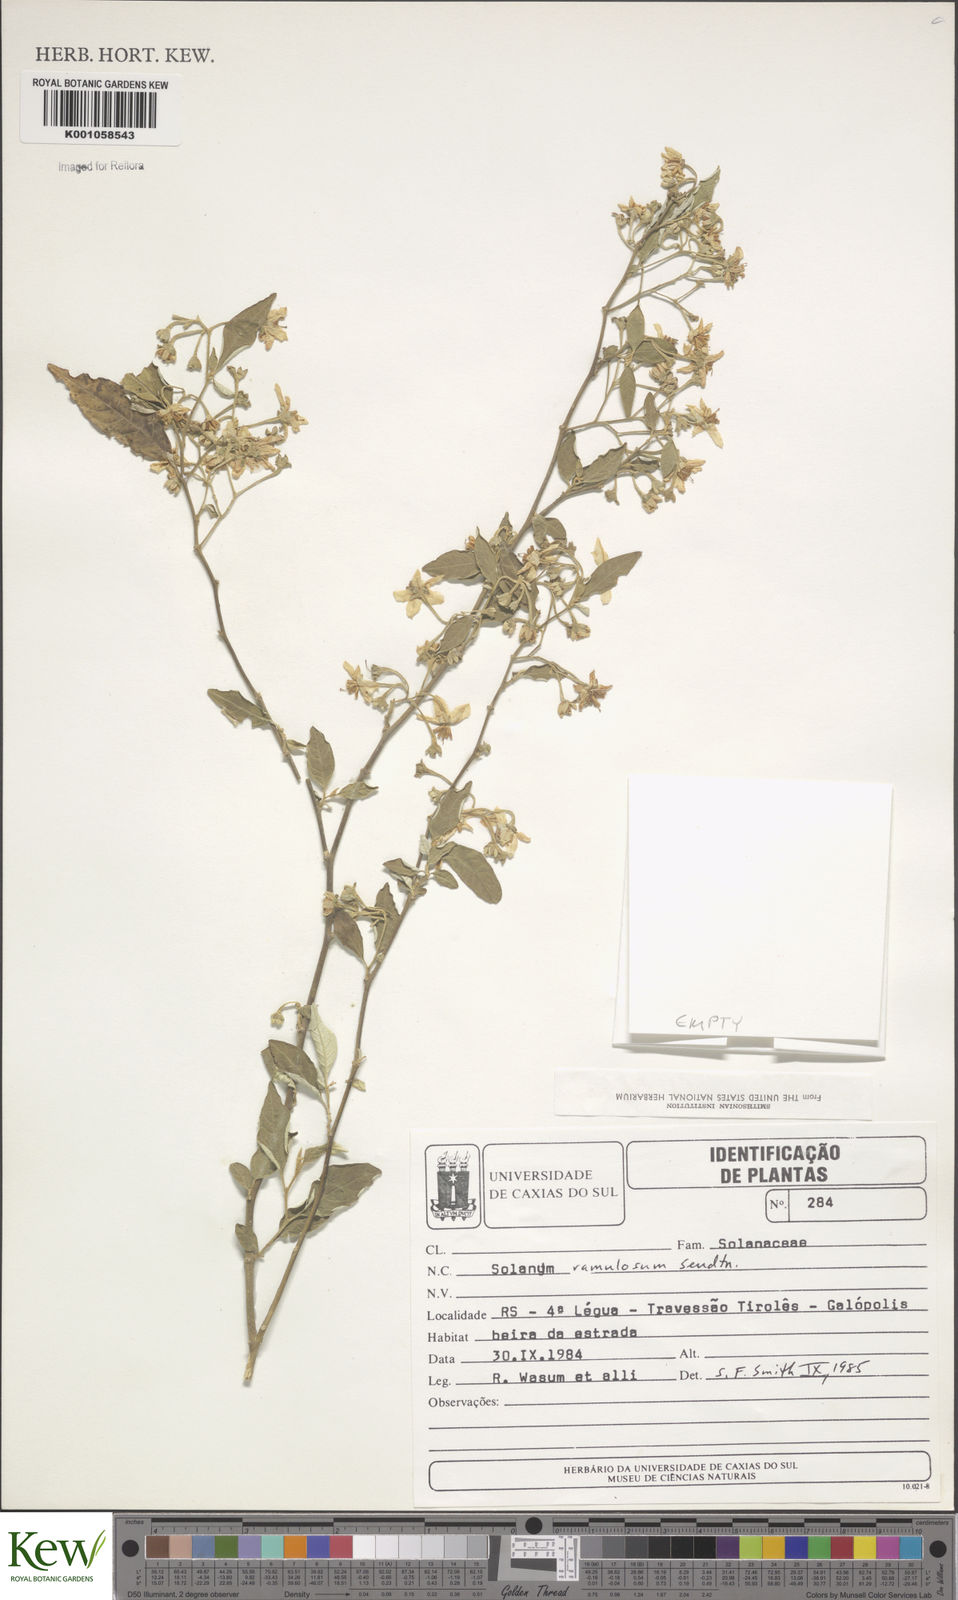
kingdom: Plantae
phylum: Tracheophyta
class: Magnoliopsida
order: Solanales
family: Solanaceae
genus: Solanum
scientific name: Solanum ramulosum
